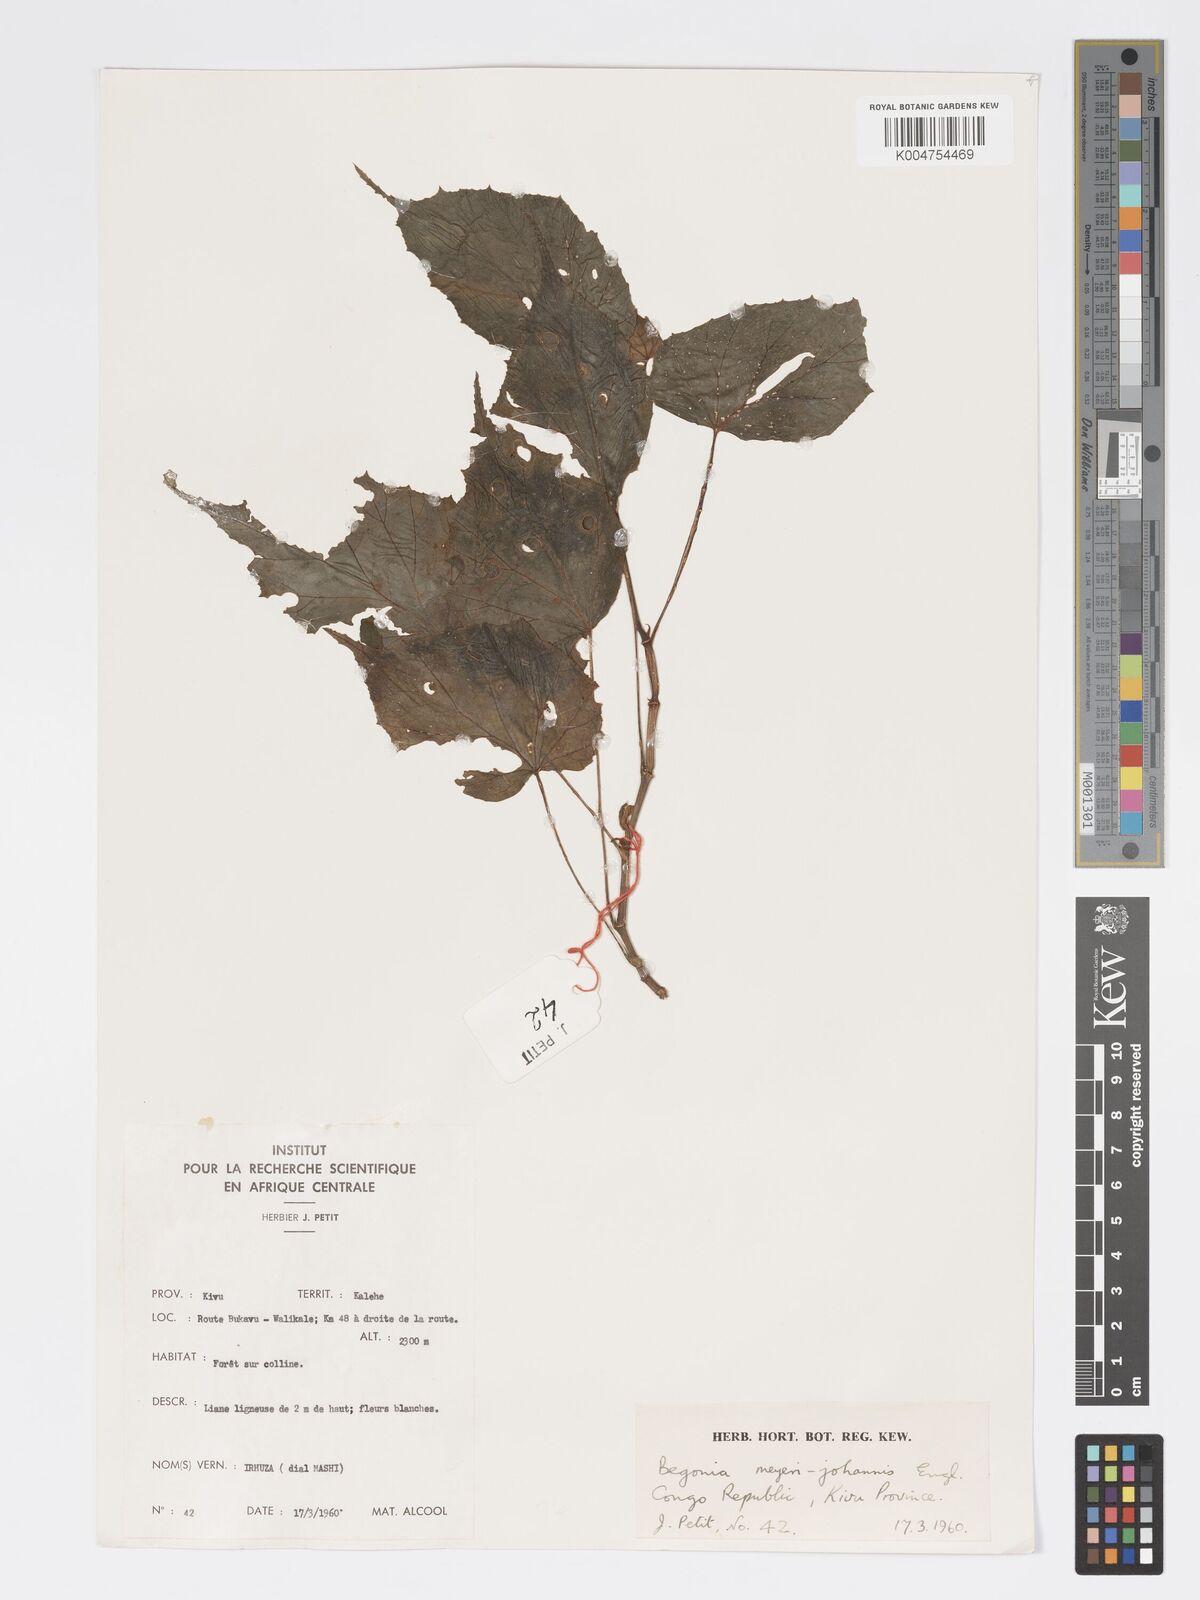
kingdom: Plantae
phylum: Tracheophyta
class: Magnoliopsida
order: Cucurbitales
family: Begoniaceae
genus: Begonia
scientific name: Begonia meyeri-johannis
